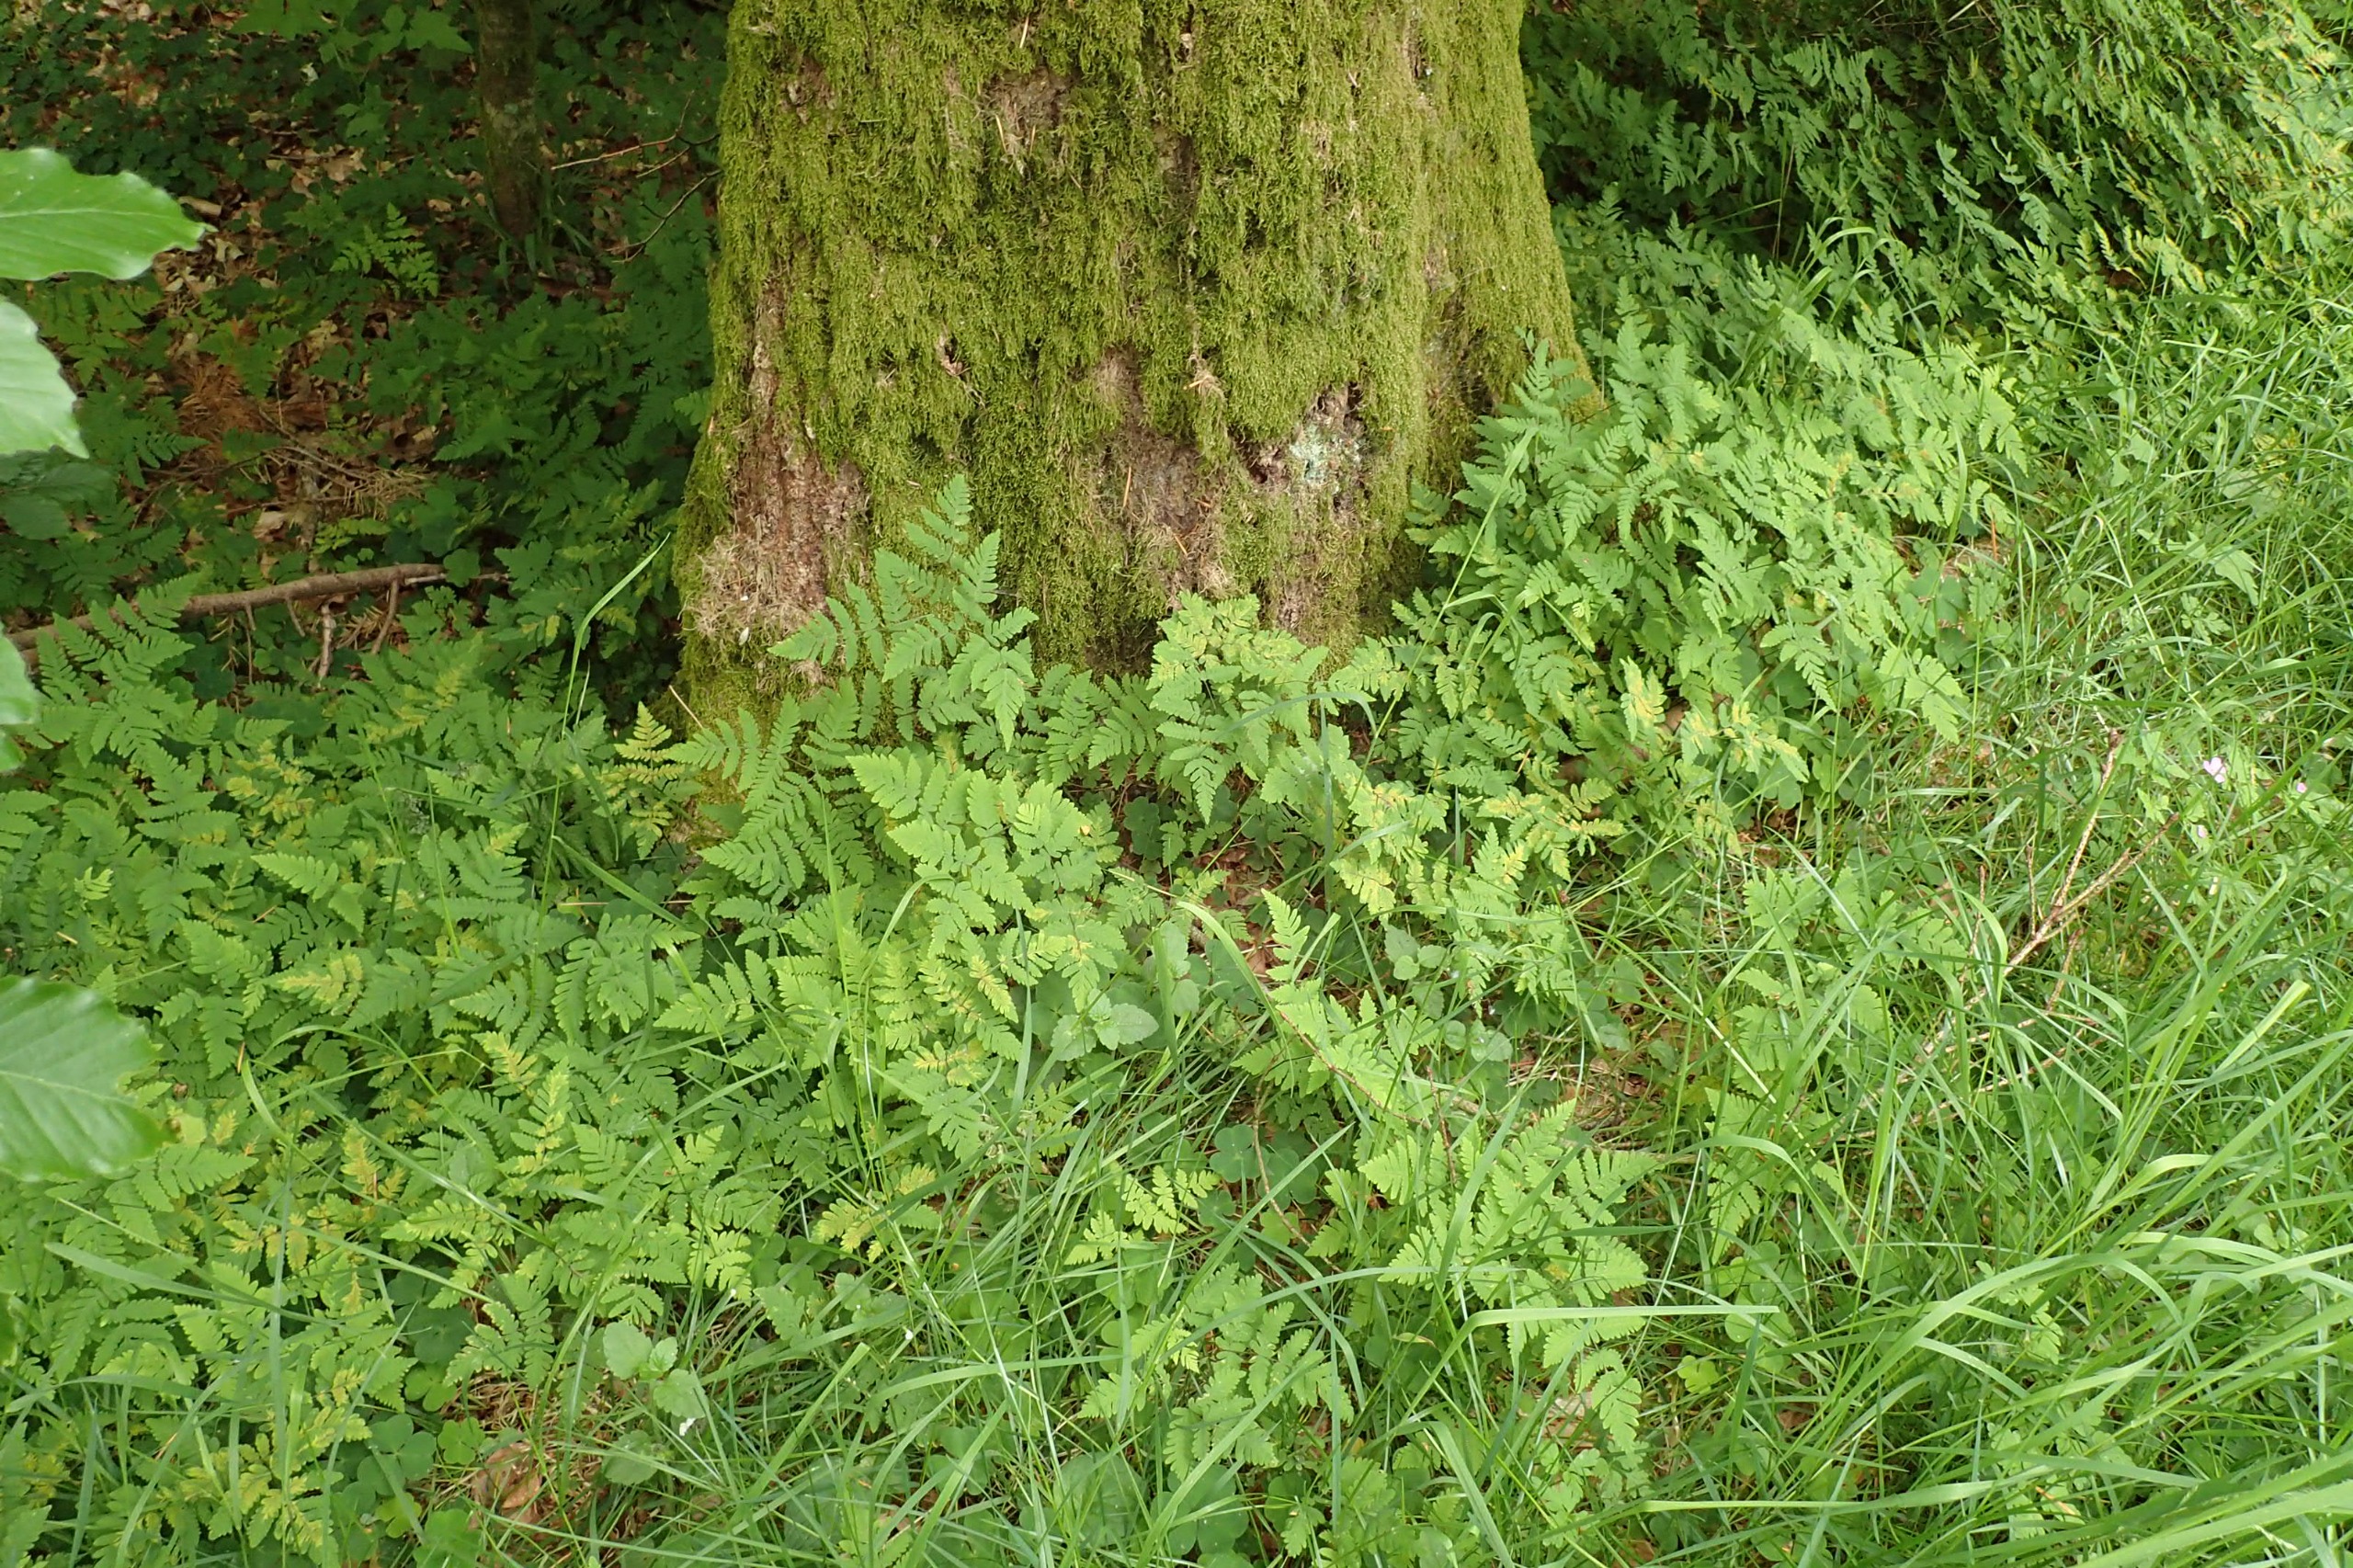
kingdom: Plantae
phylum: Tracheophyta
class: Polypodiopsida
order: Polypodiales
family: Cystopteridaceae
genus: Gymnocarpium
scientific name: Gymnocarpium dryopteris
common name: Tredelt egebregne
